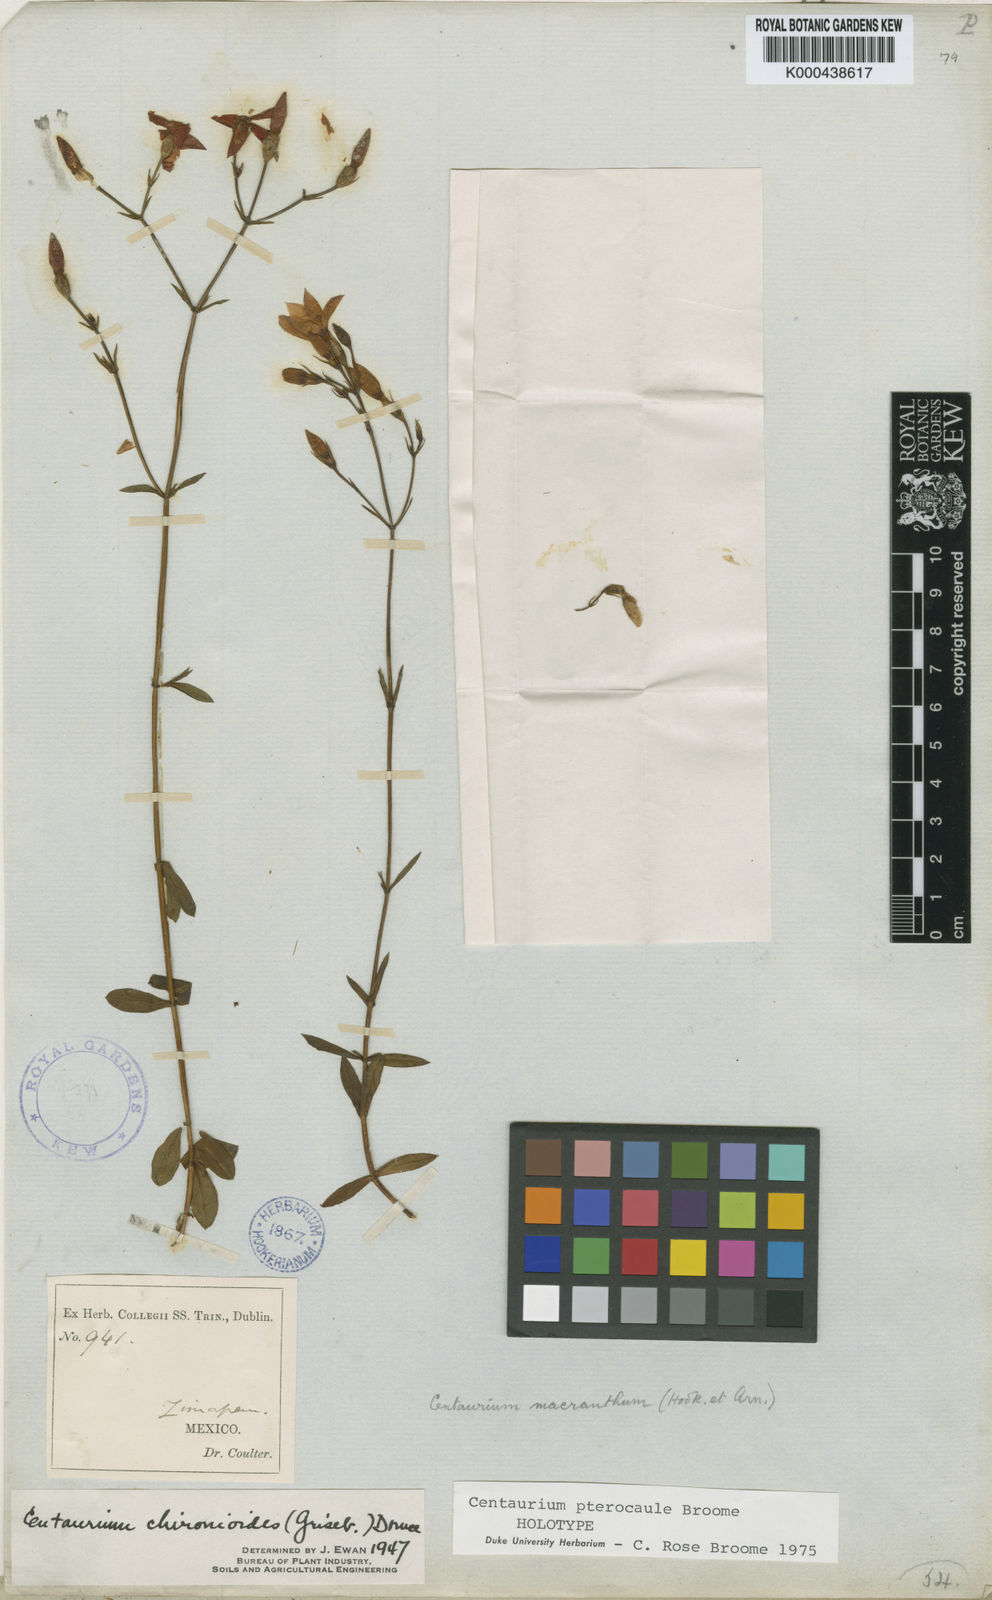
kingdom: Plantae
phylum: Tracheophyta
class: Magnoliopsida
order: Gentianales
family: Gentianaceae
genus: Gyrandra
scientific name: Gyrandra pterocaulis
